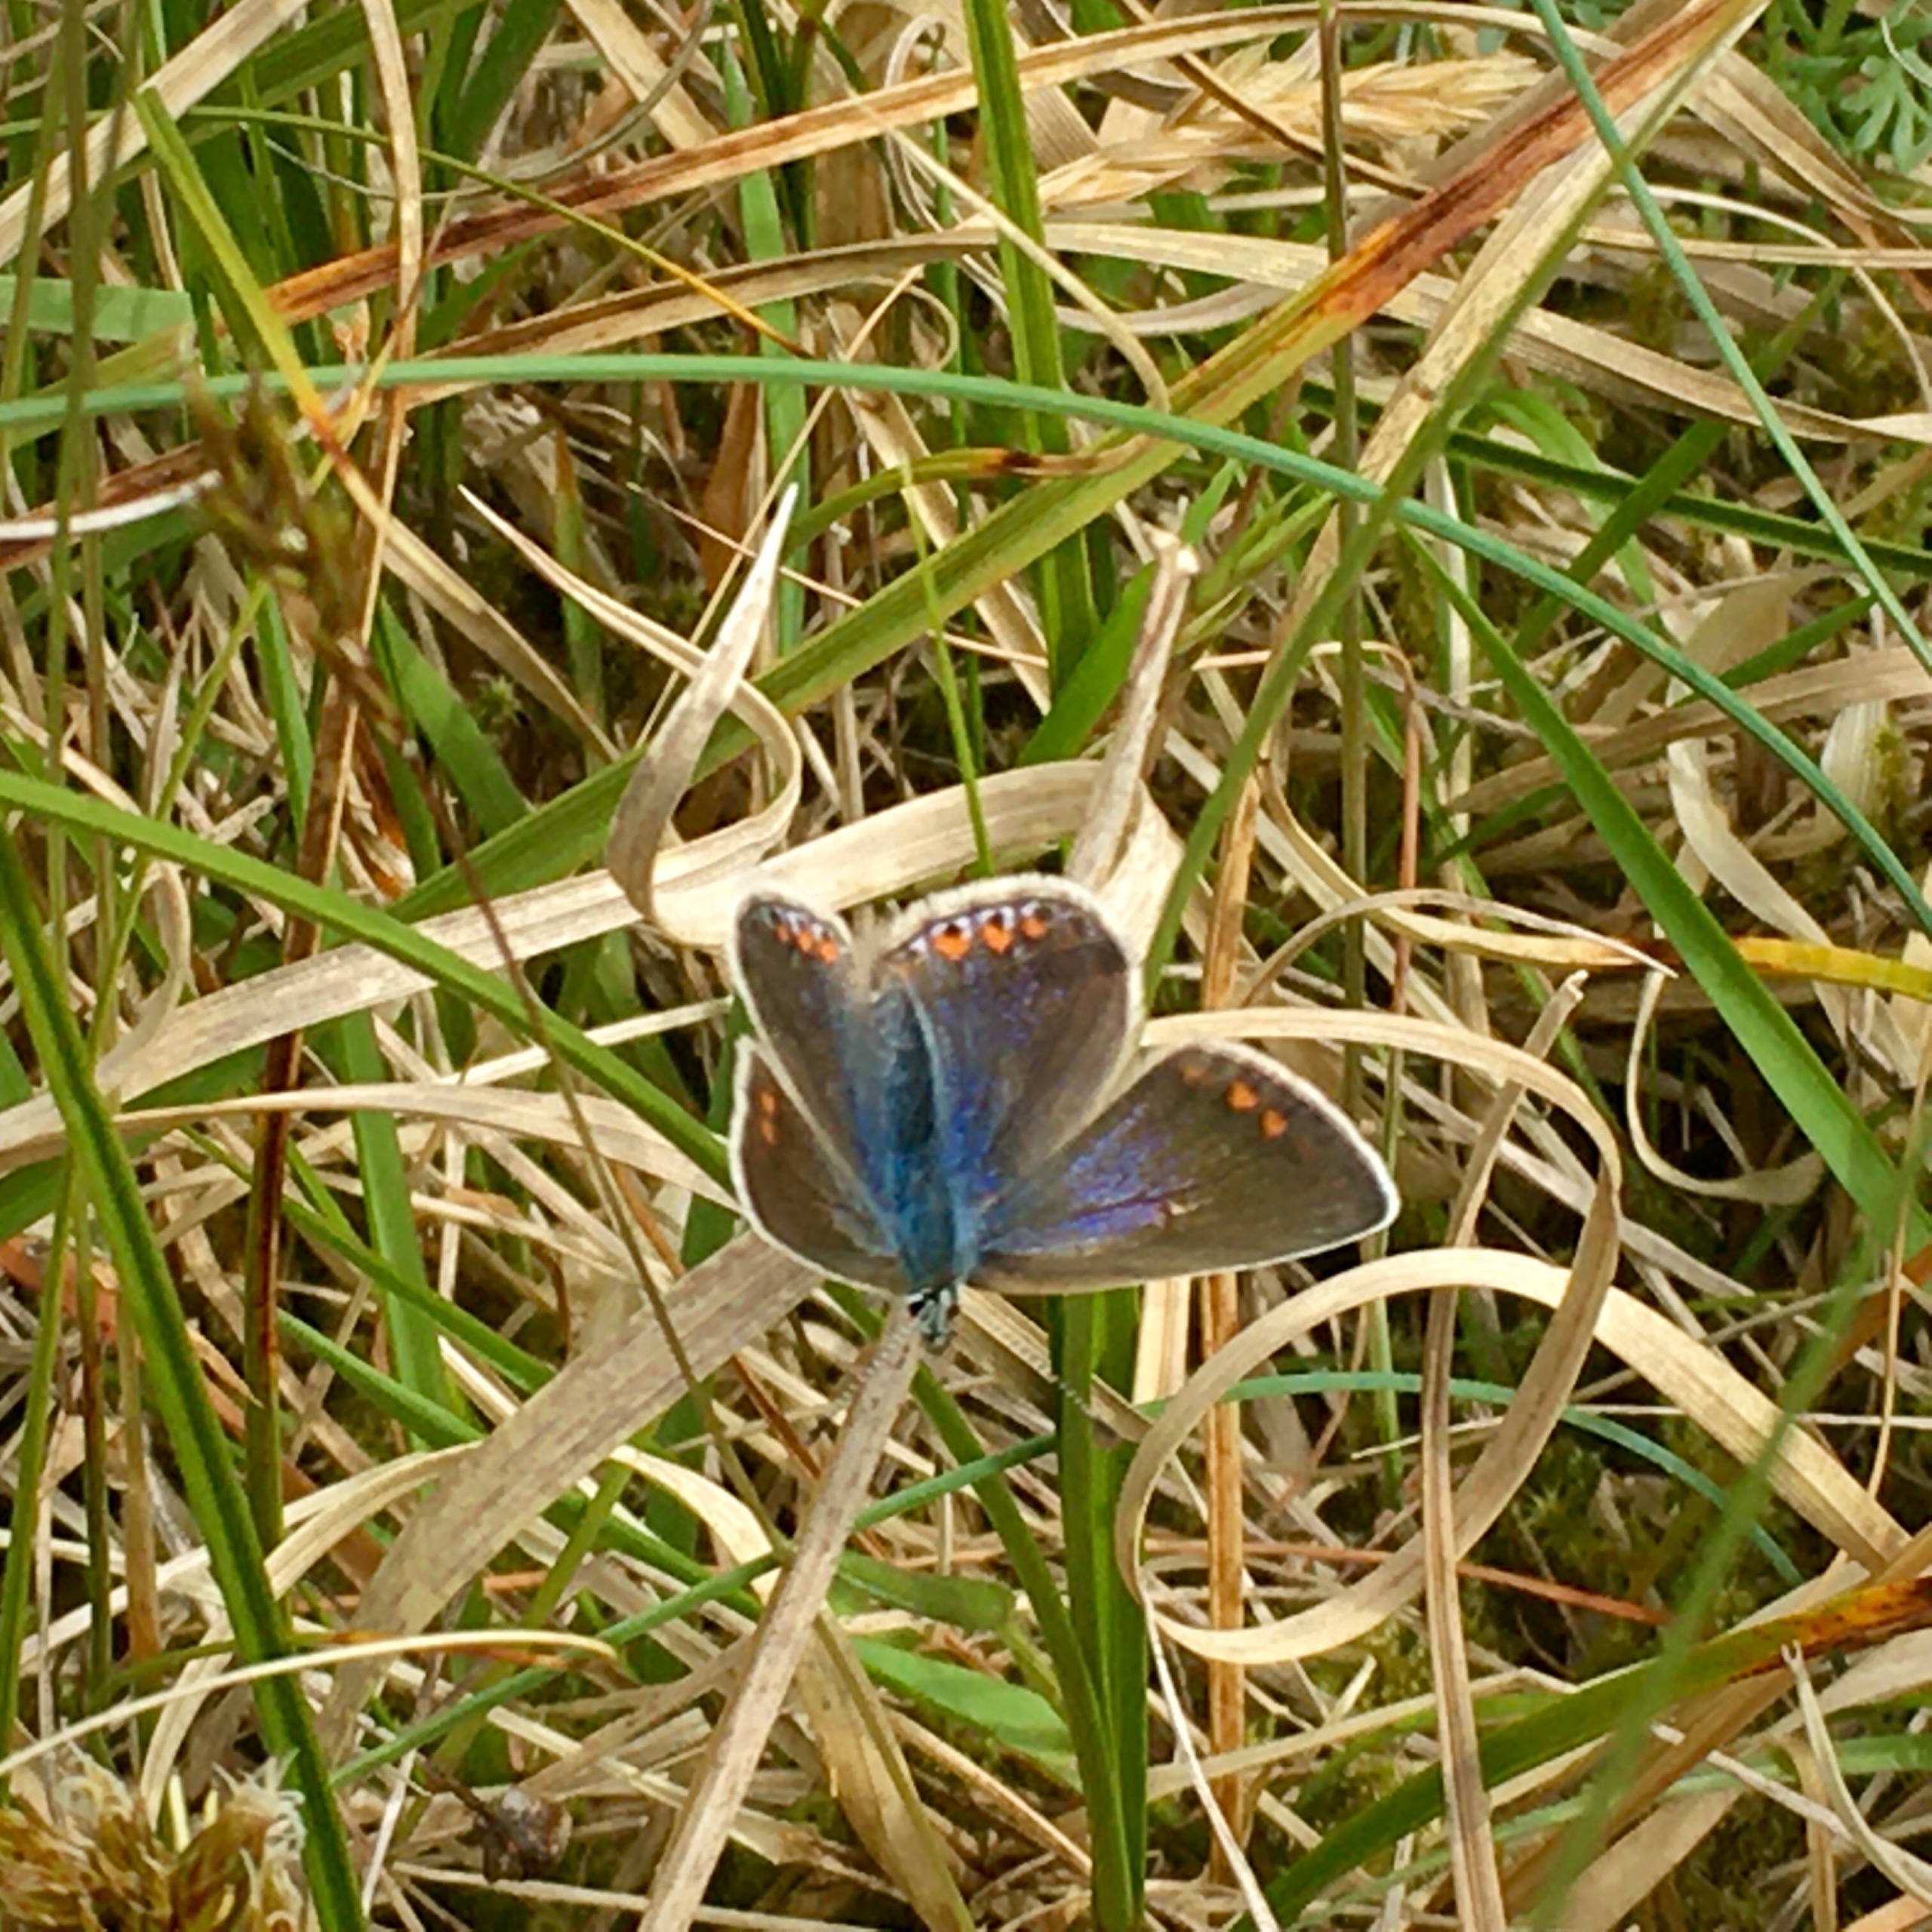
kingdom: Animalia
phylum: Arthropoda
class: Insecta
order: Lepidoptera
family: Lycaenidae
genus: Polyommatus
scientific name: Polyommatus icarus
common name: Almindelig blåfugl
